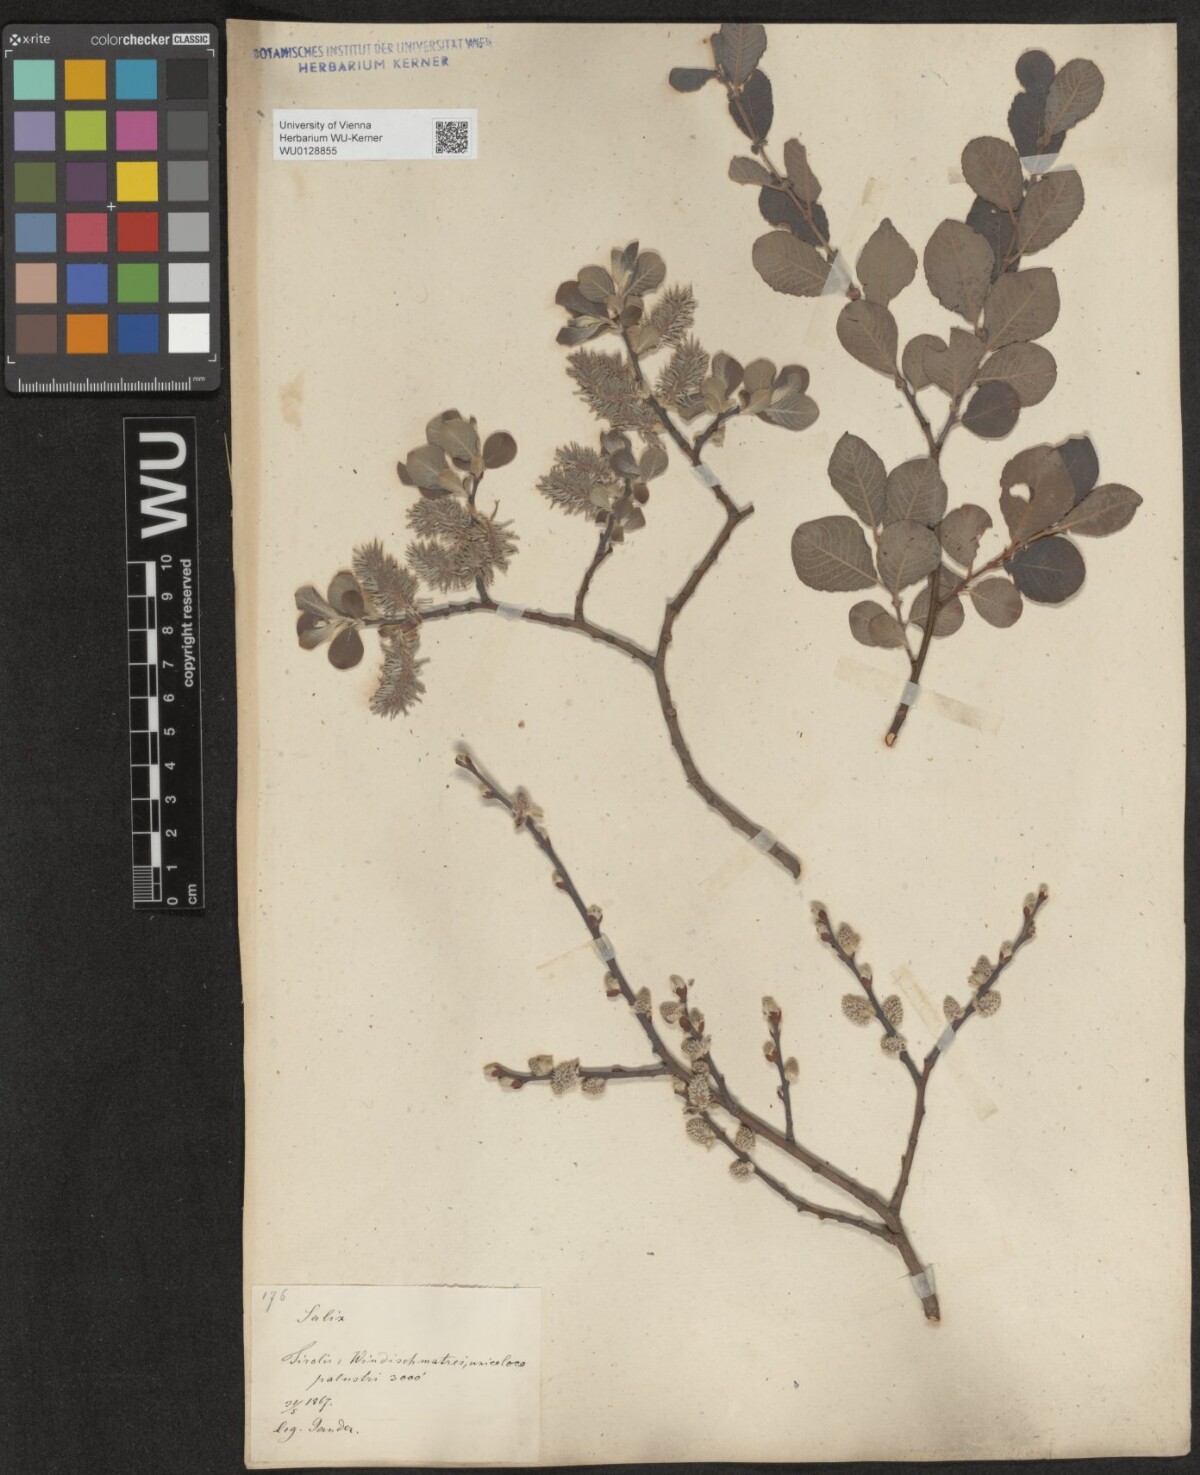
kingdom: Plantae
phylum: Tracheophyta
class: Magnoliopsida
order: Malpighiales
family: Salicaceae
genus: Salix
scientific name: Salix aurita
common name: Eared willow
